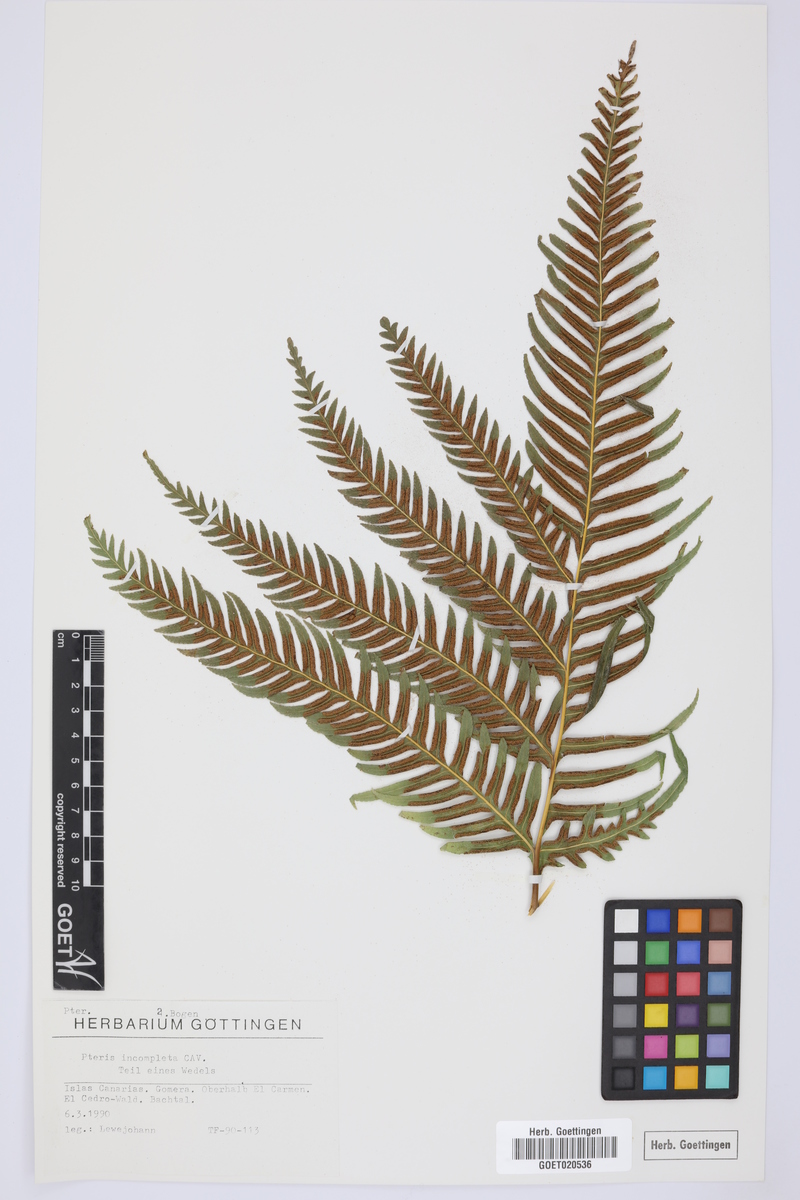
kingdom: Plantae
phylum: Tracheophyta
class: Polypodiopsida
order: Polypodiales
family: Pteridaceae
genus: Pteris
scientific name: Pteris incompleta
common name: Laurisilva brake
